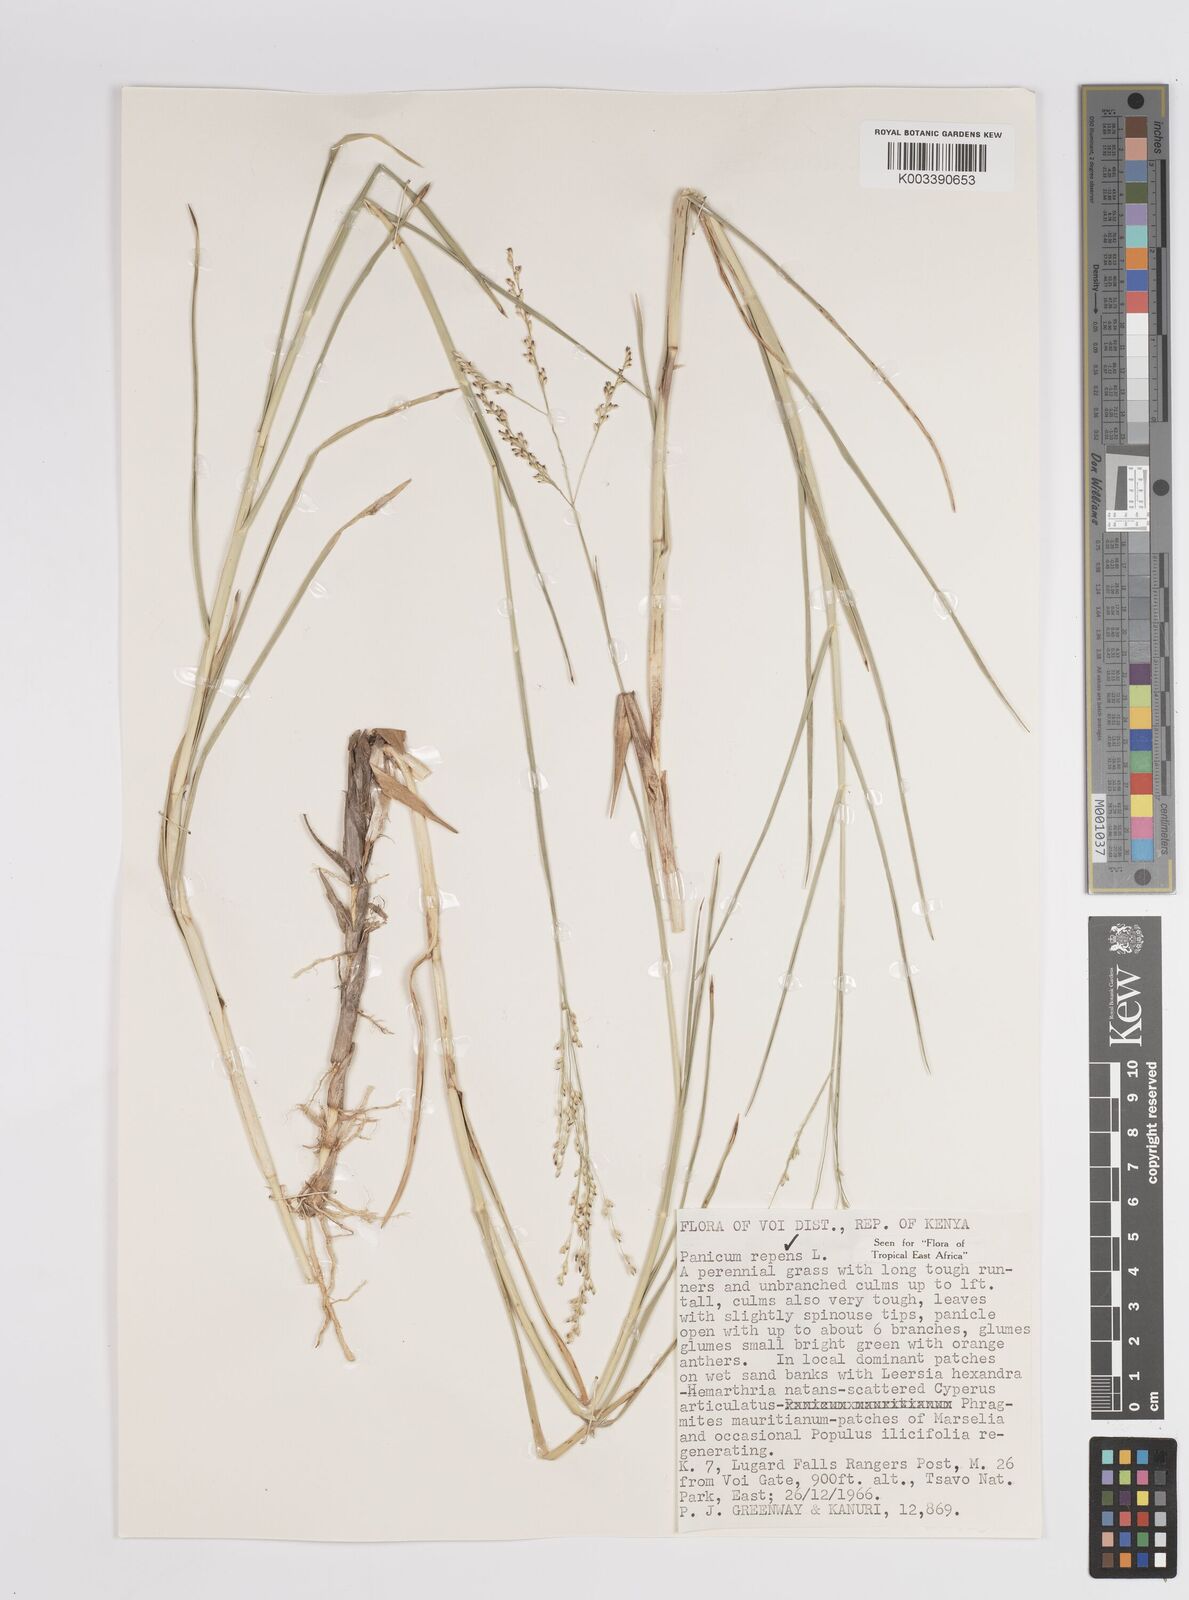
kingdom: Plantae
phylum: Tracheophyta
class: Liliopsida
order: Poales
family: Poaceae
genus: Panicum
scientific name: Panicum repens
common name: Torpedo grass
